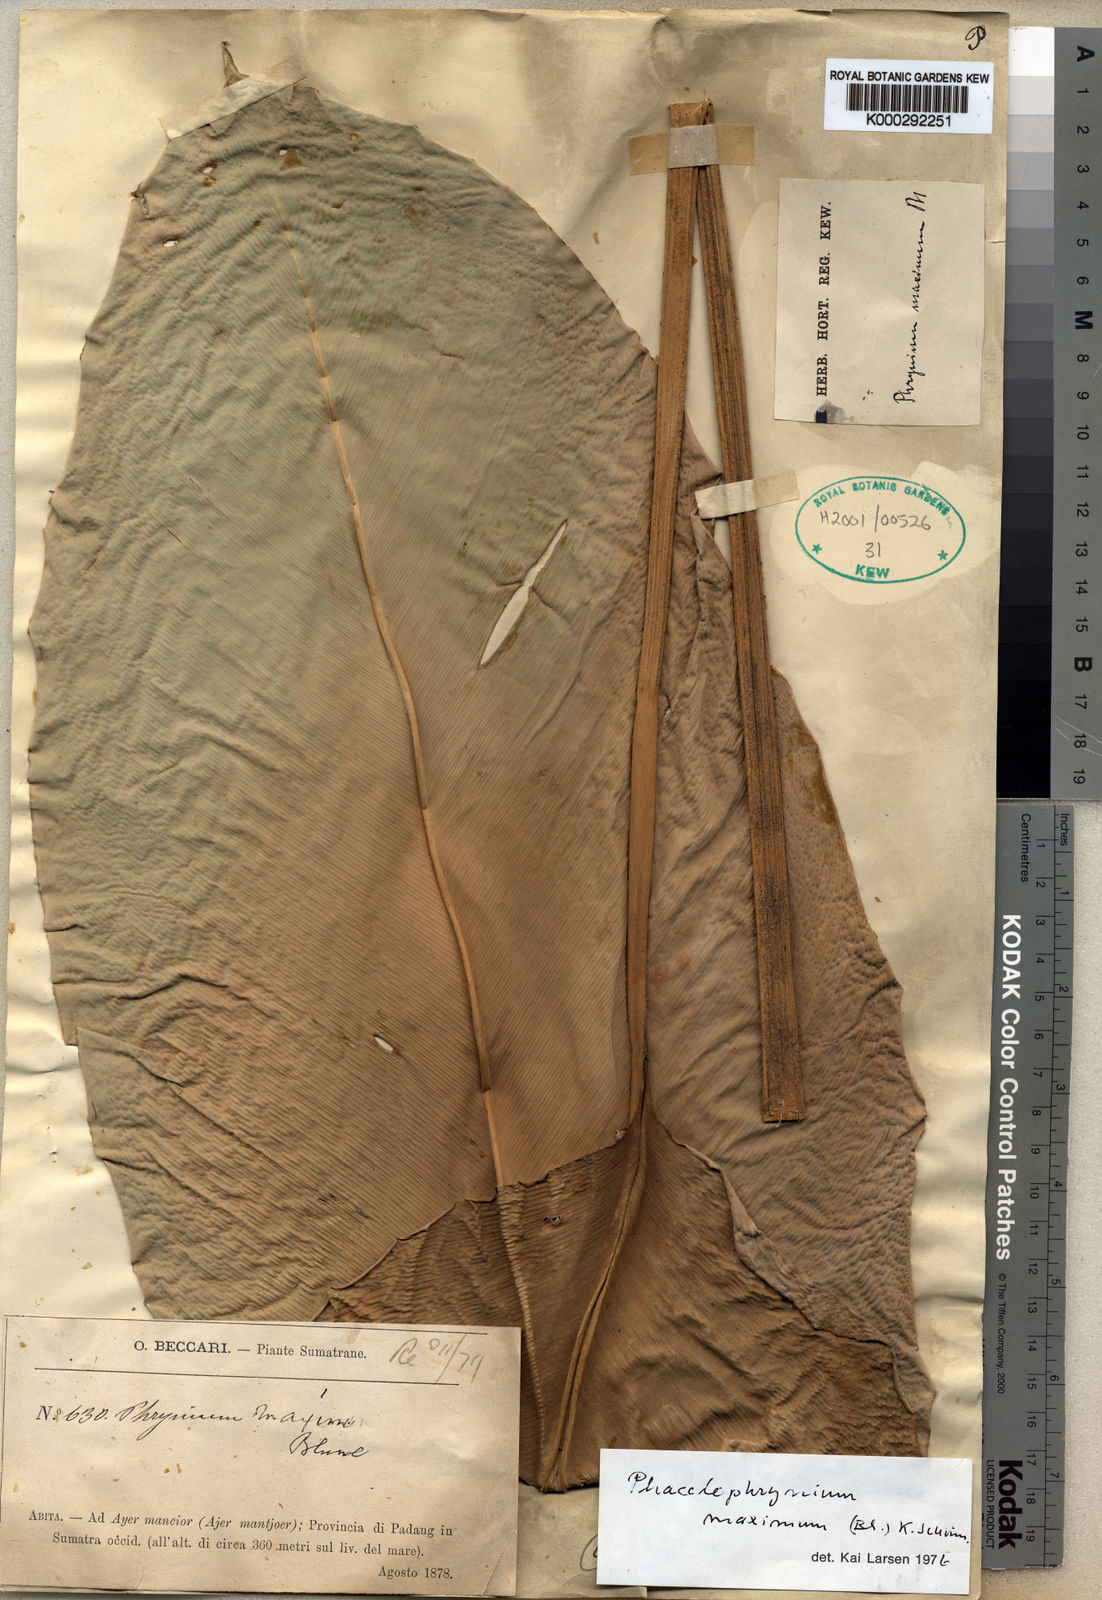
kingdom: Plantae
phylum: Tracheophyta
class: Liliopsida
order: Zingiberales
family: Marantaceae
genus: Phrynium
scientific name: Phrynium maximum
